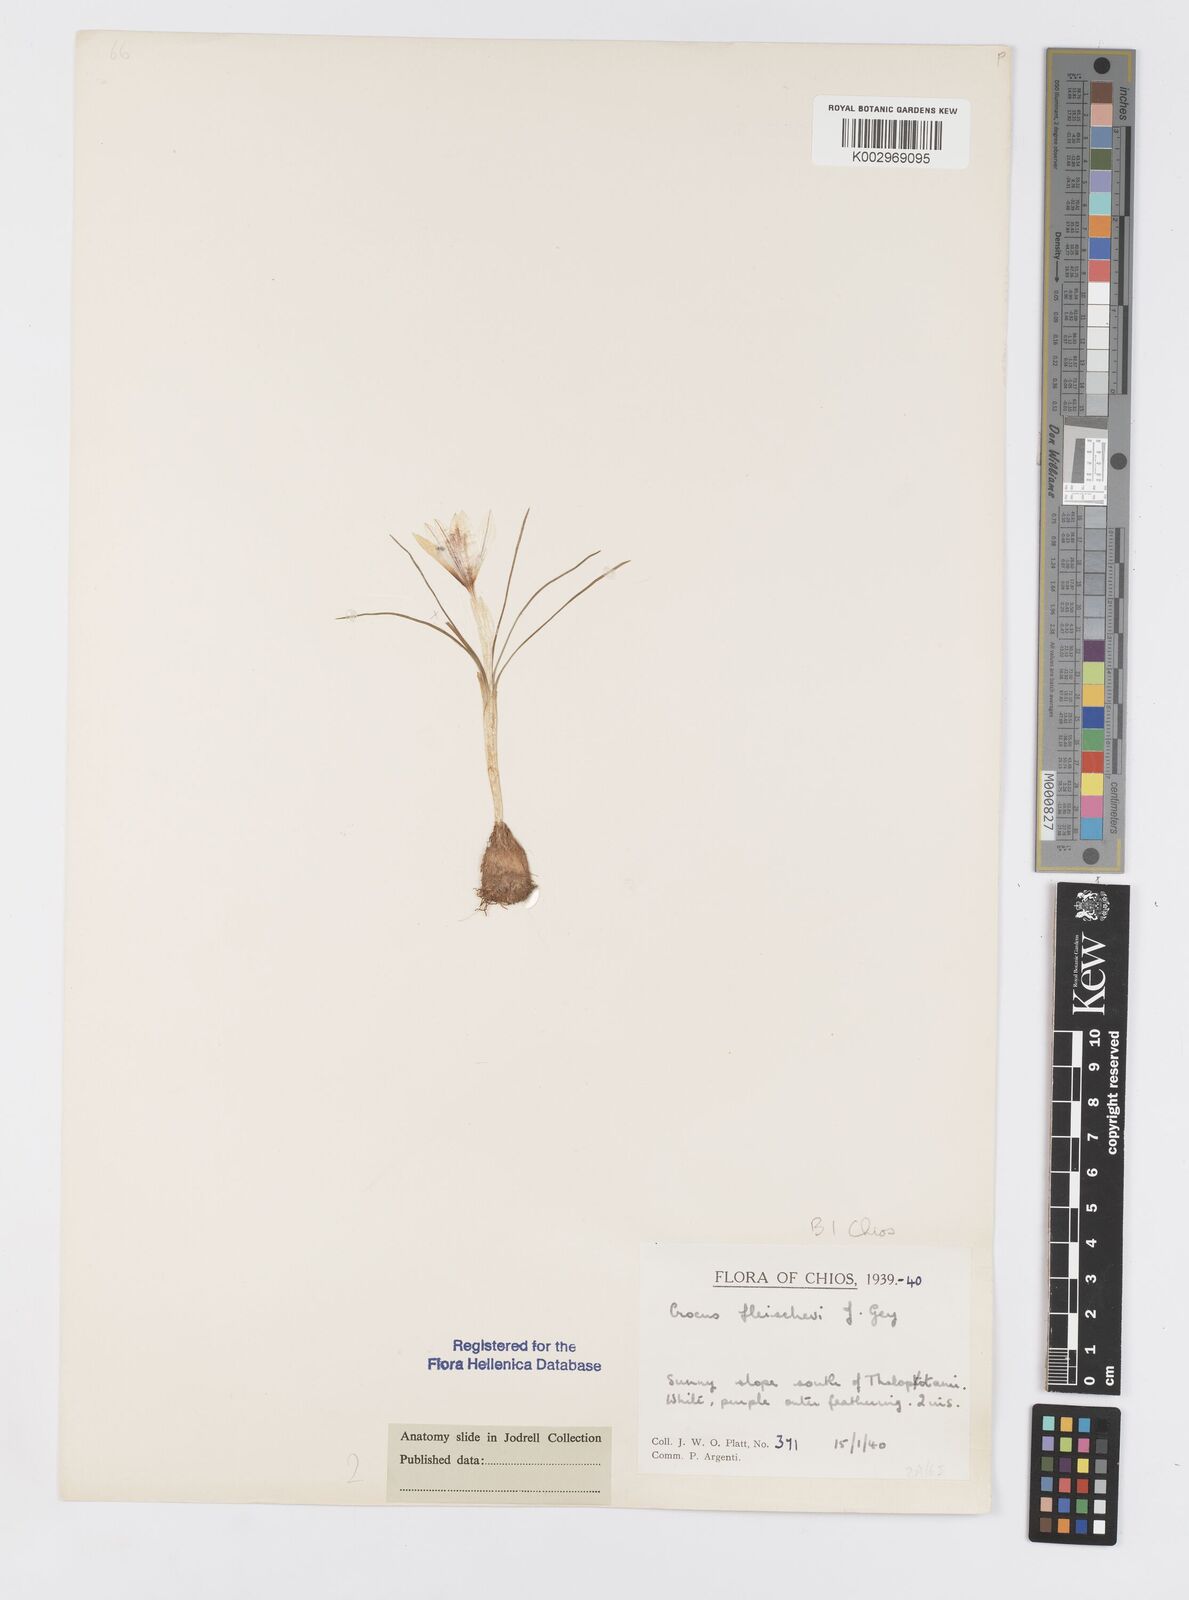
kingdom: Plantae
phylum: Tracheophyta
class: Liliopsida
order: Asparagales
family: Iridaceae
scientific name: Iridaceae
